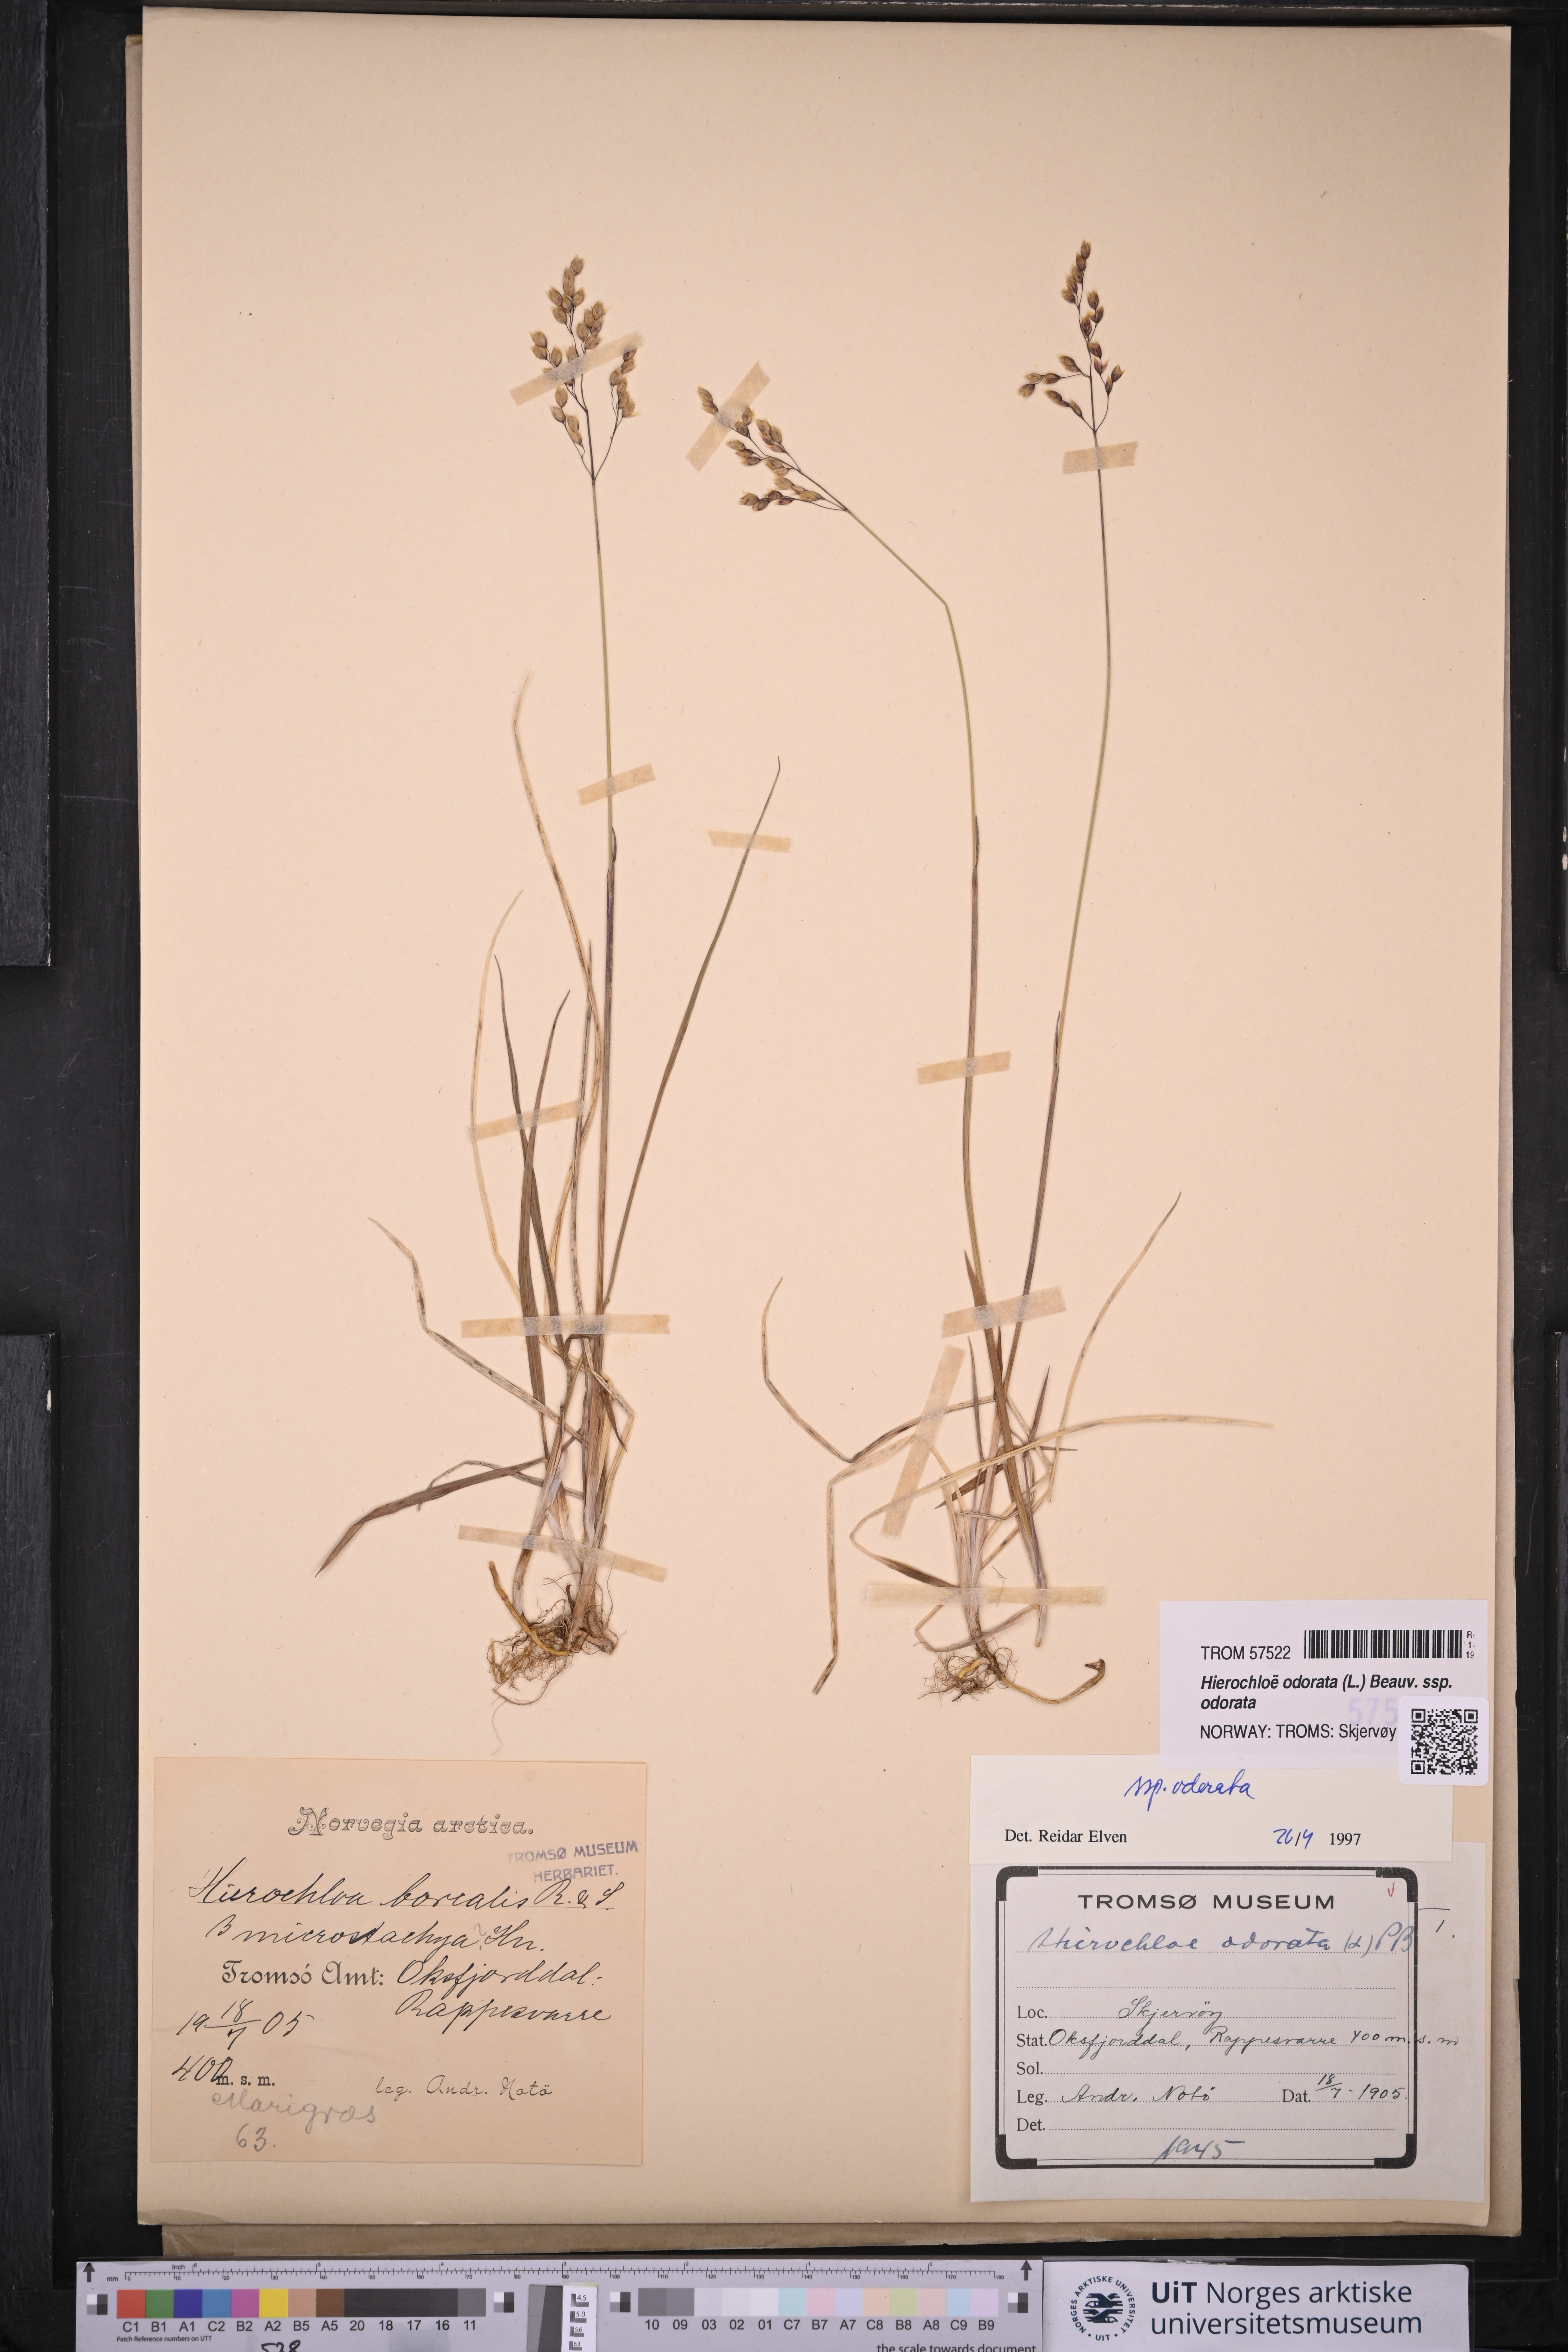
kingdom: Plantae
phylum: Tracheophyta
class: Liliopsida
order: Poales
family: Poaceae
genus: Anthoxanthum
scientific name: Anthoxanthum nitens
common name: Holy grass
